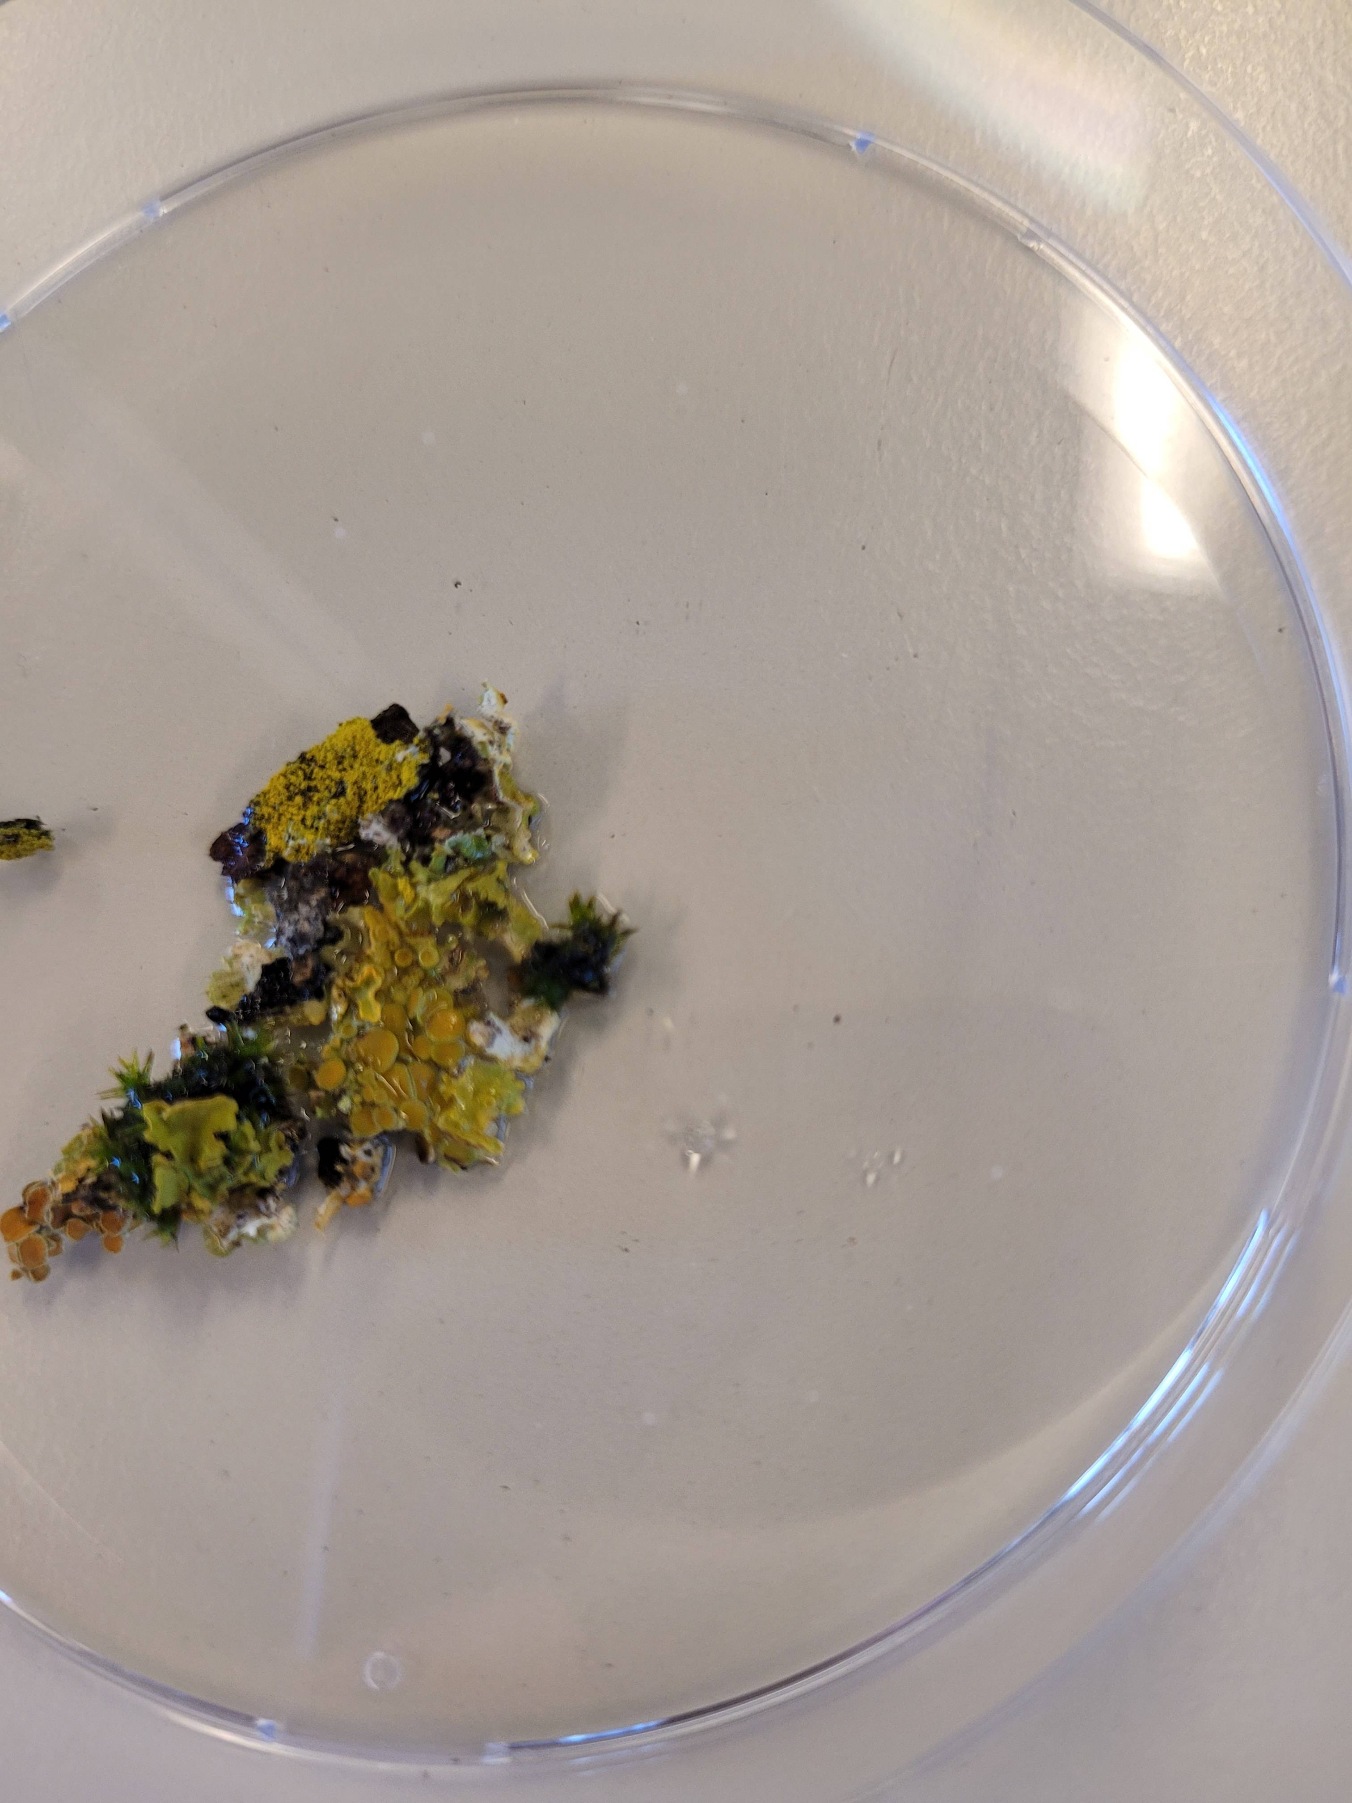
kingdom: Fungi
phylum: Ascomycota
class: Lecanoromycetes
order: Teloschistales
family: Teloschistaceae
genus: Xanthoria
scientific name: Xanthoria parietina
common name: Almindelig væggelav
